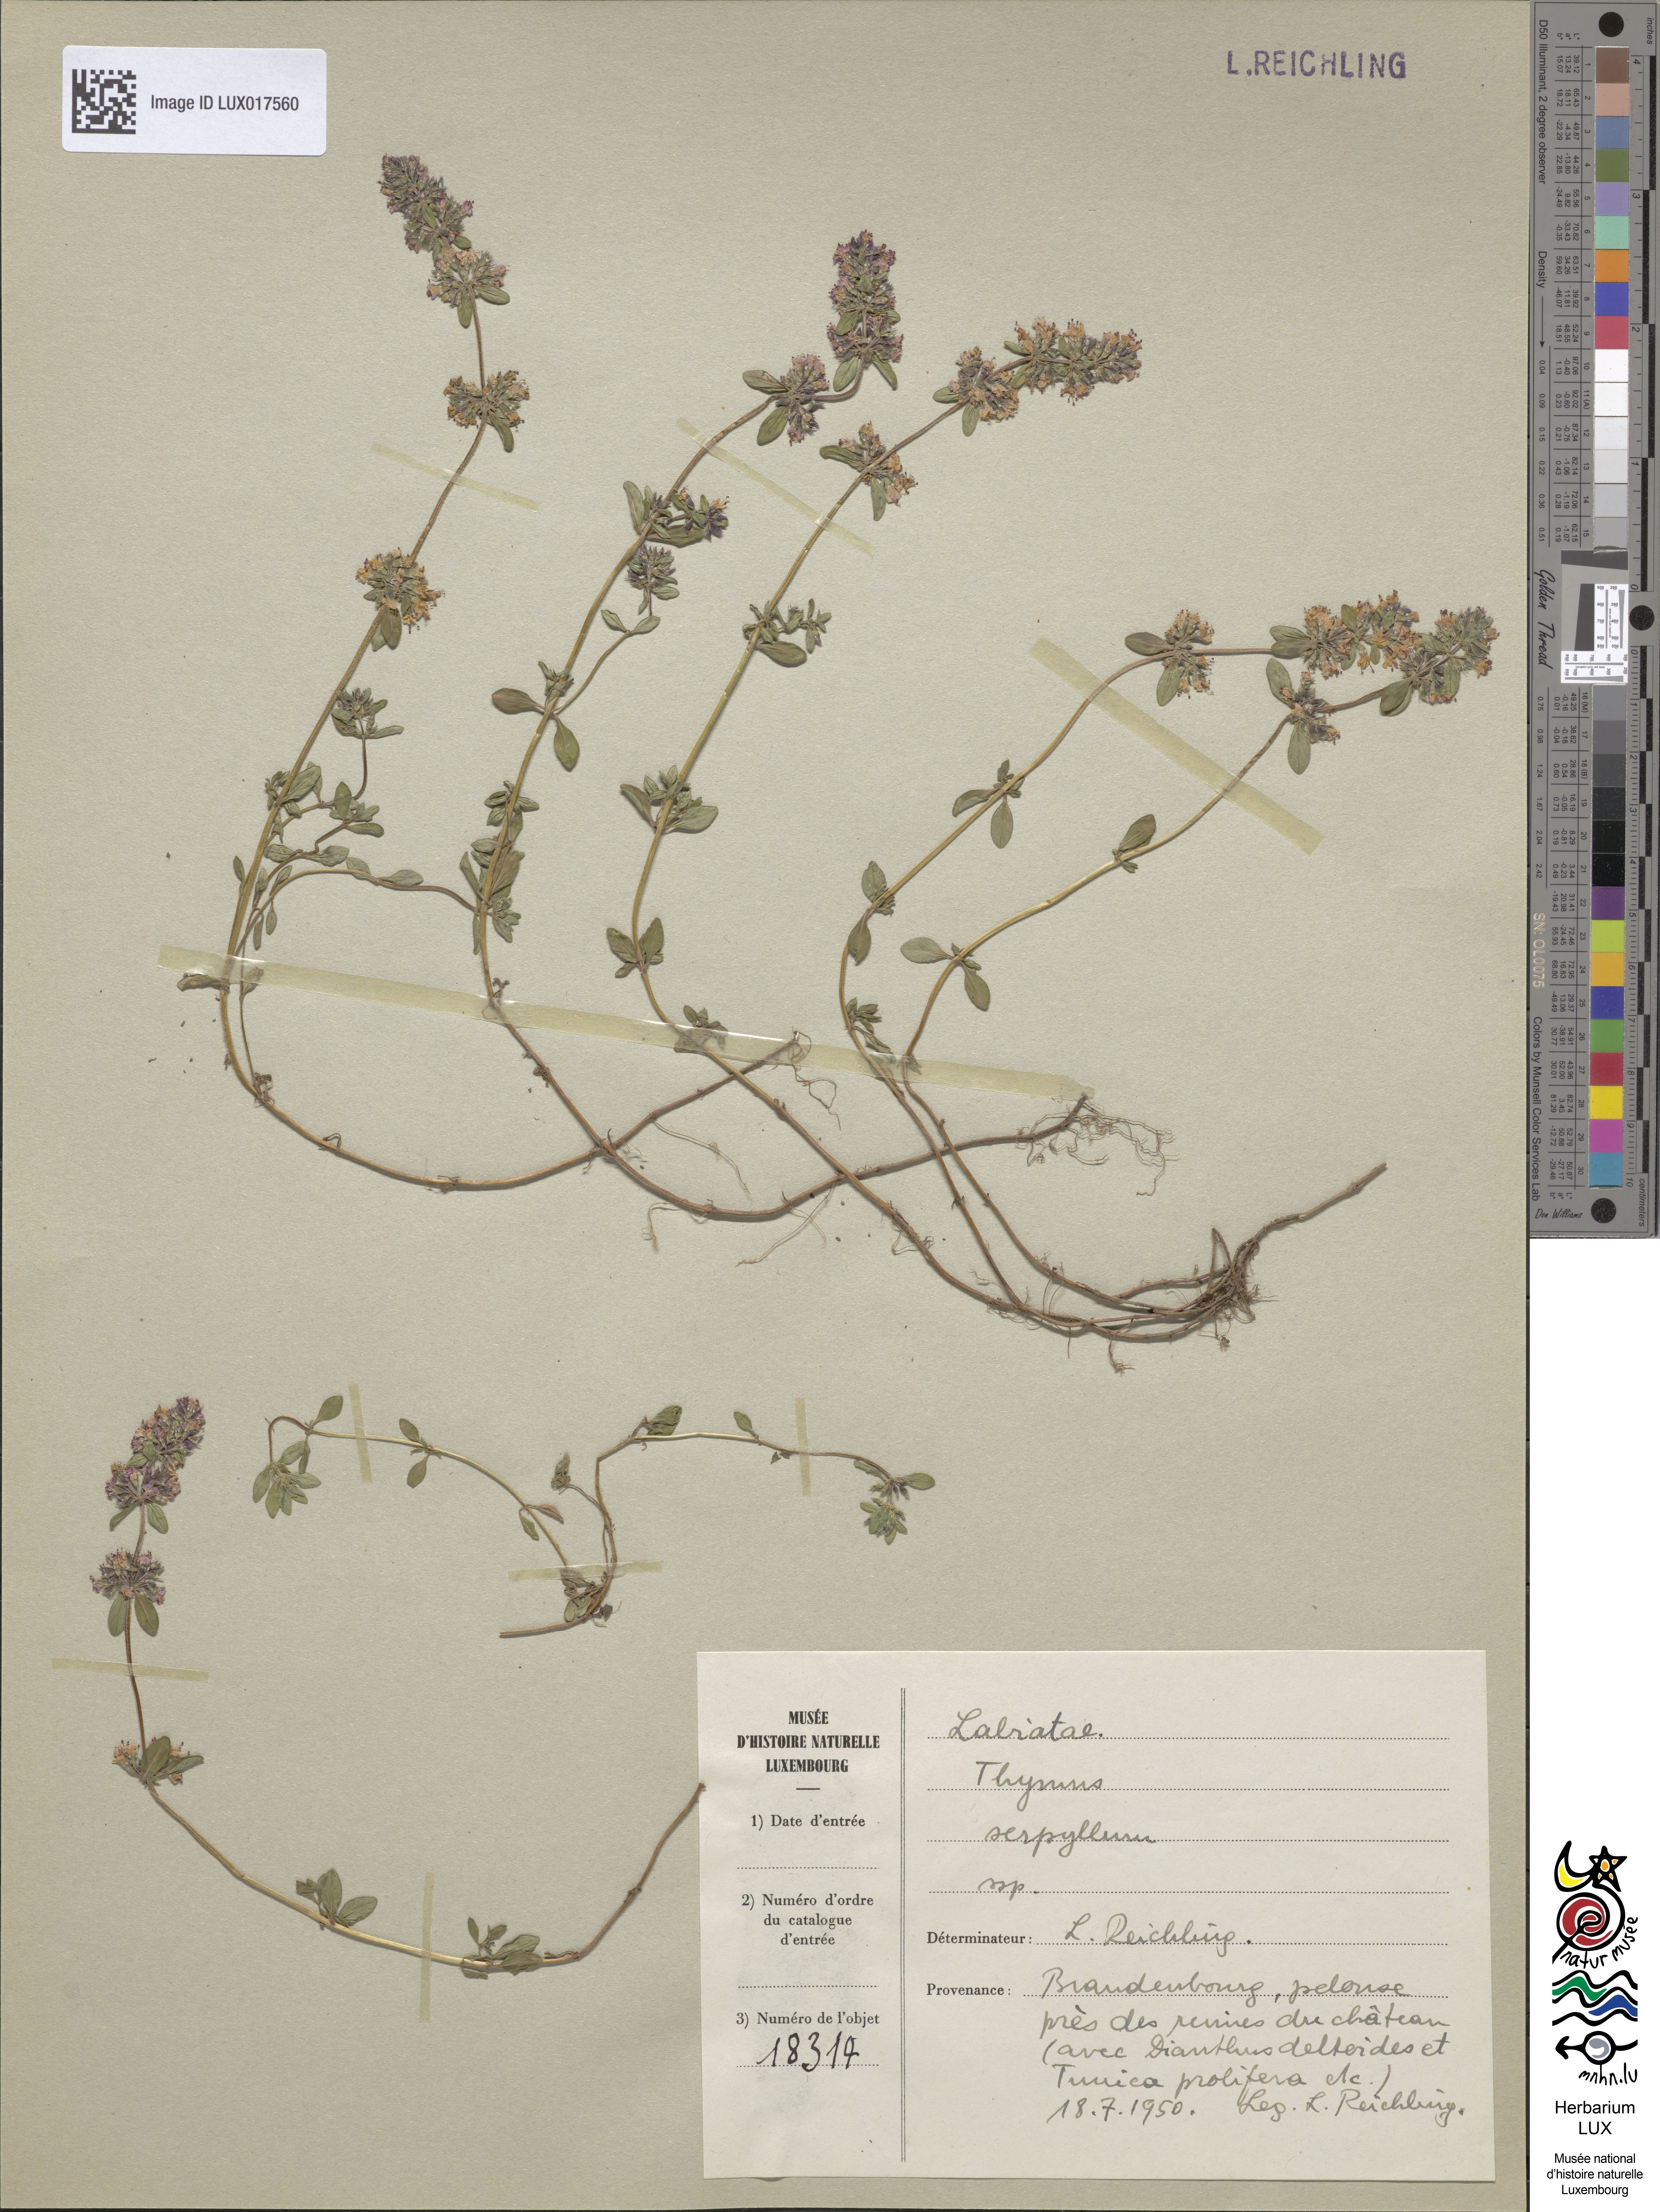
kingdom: Plantae
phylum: Tracheophyta
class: Magnoliopsida
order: Lamiales
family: Lamiaceae
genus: Thymus
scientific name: Thymus serpyllum
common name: Breckland thyme
